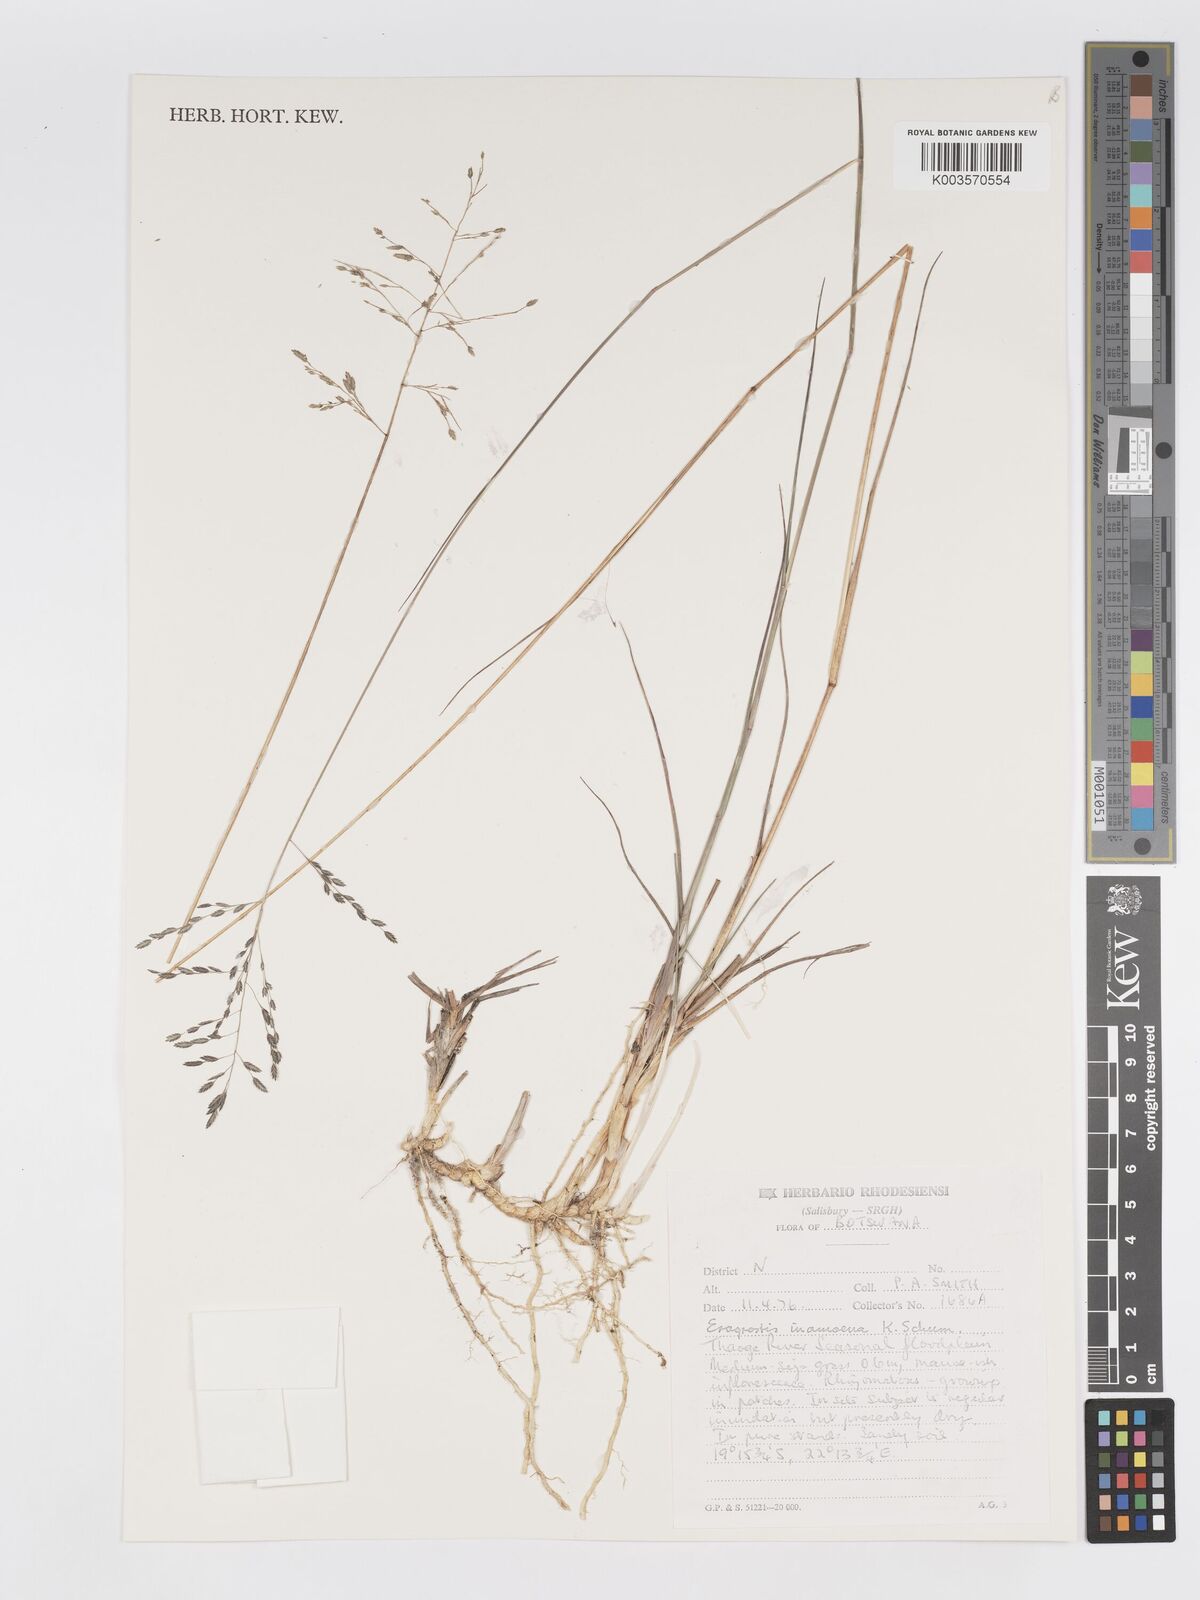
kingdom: Plantae
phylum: Tracheophyta
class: Liliopsida
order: Poales
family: Poaceae
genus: Eragrostis
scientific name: Eragrostis inamoena
